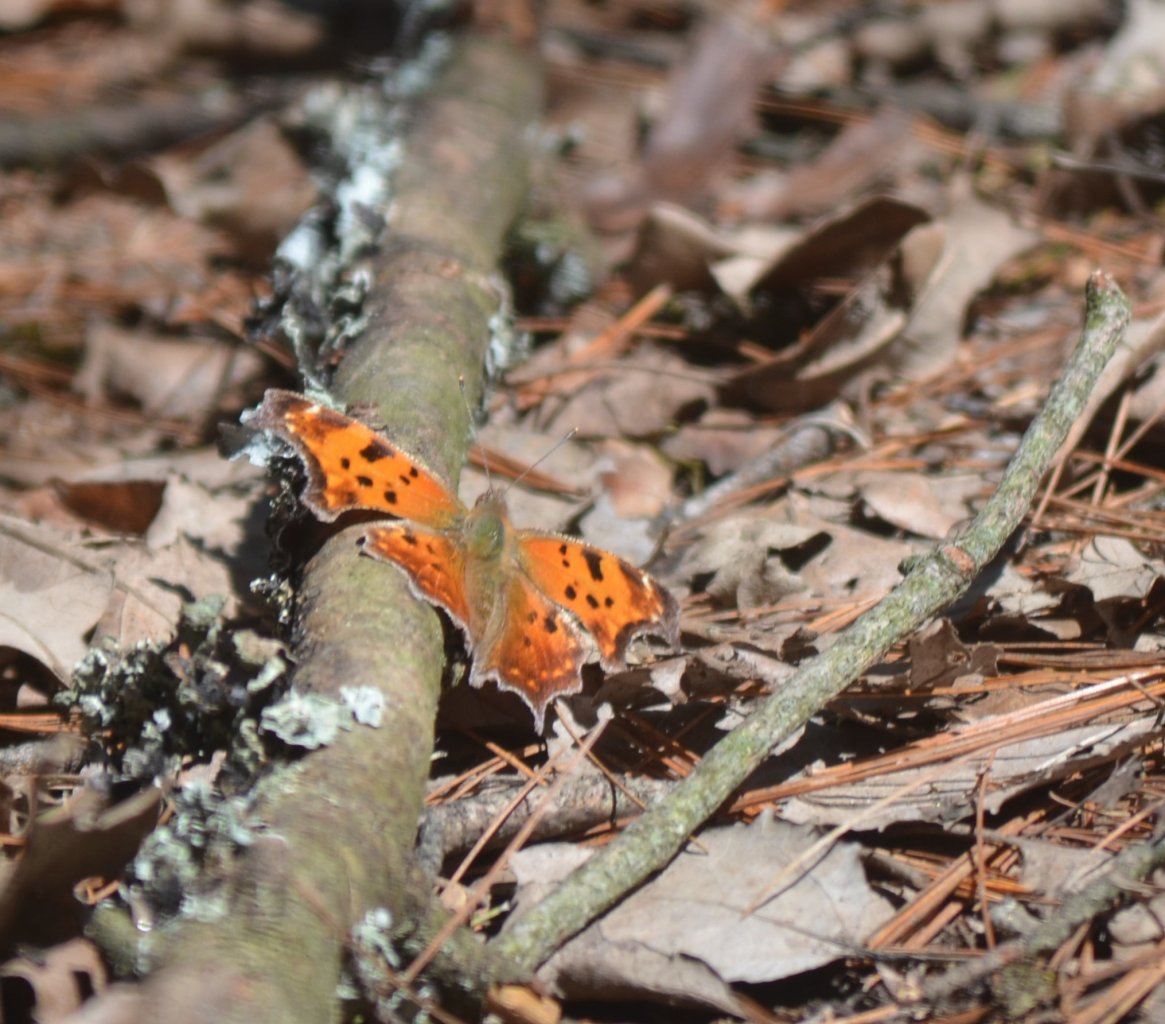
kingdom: Animalia
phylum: Arthropoda
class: Insecta
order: Lepidoptera
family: Nymphalidae
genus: Polygonia
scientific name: Polygonia comma
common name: Eastern Comma
